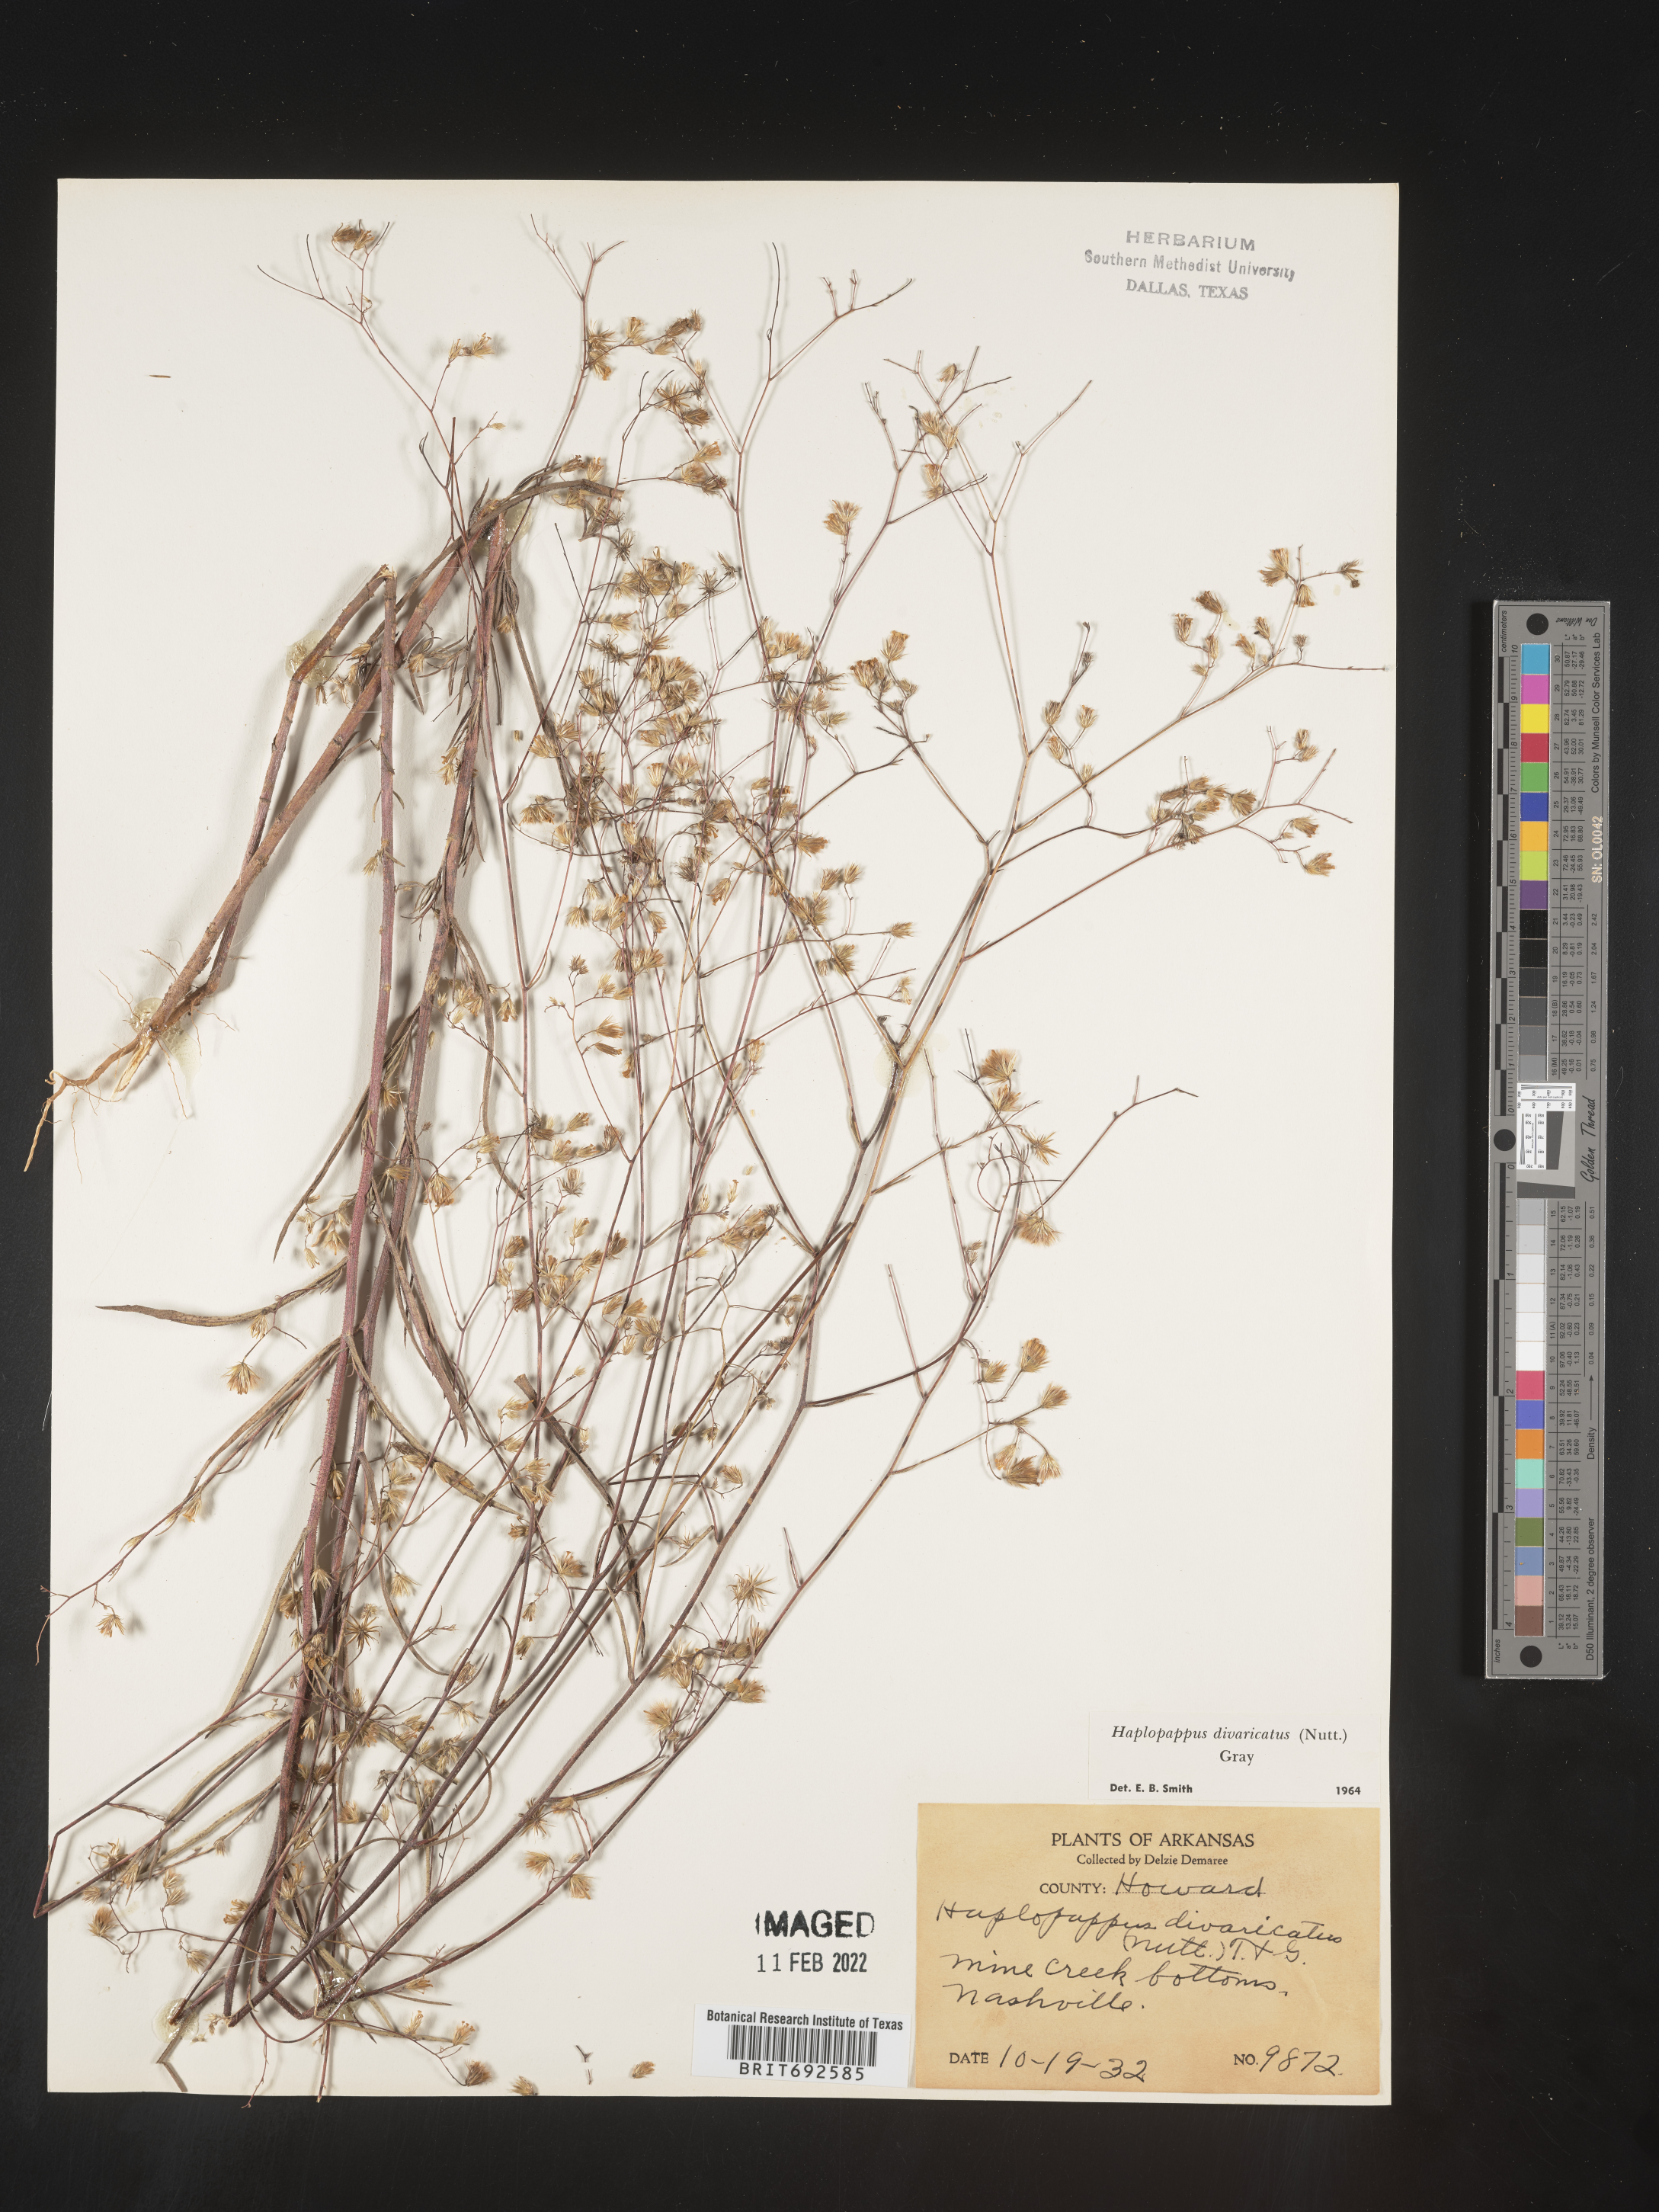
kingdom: Plantae
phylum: Tracheophyta
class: Magnoliopsida
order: Asterales
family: Asteraceae
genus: Croptilon
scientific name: Croptilon divaricatum
